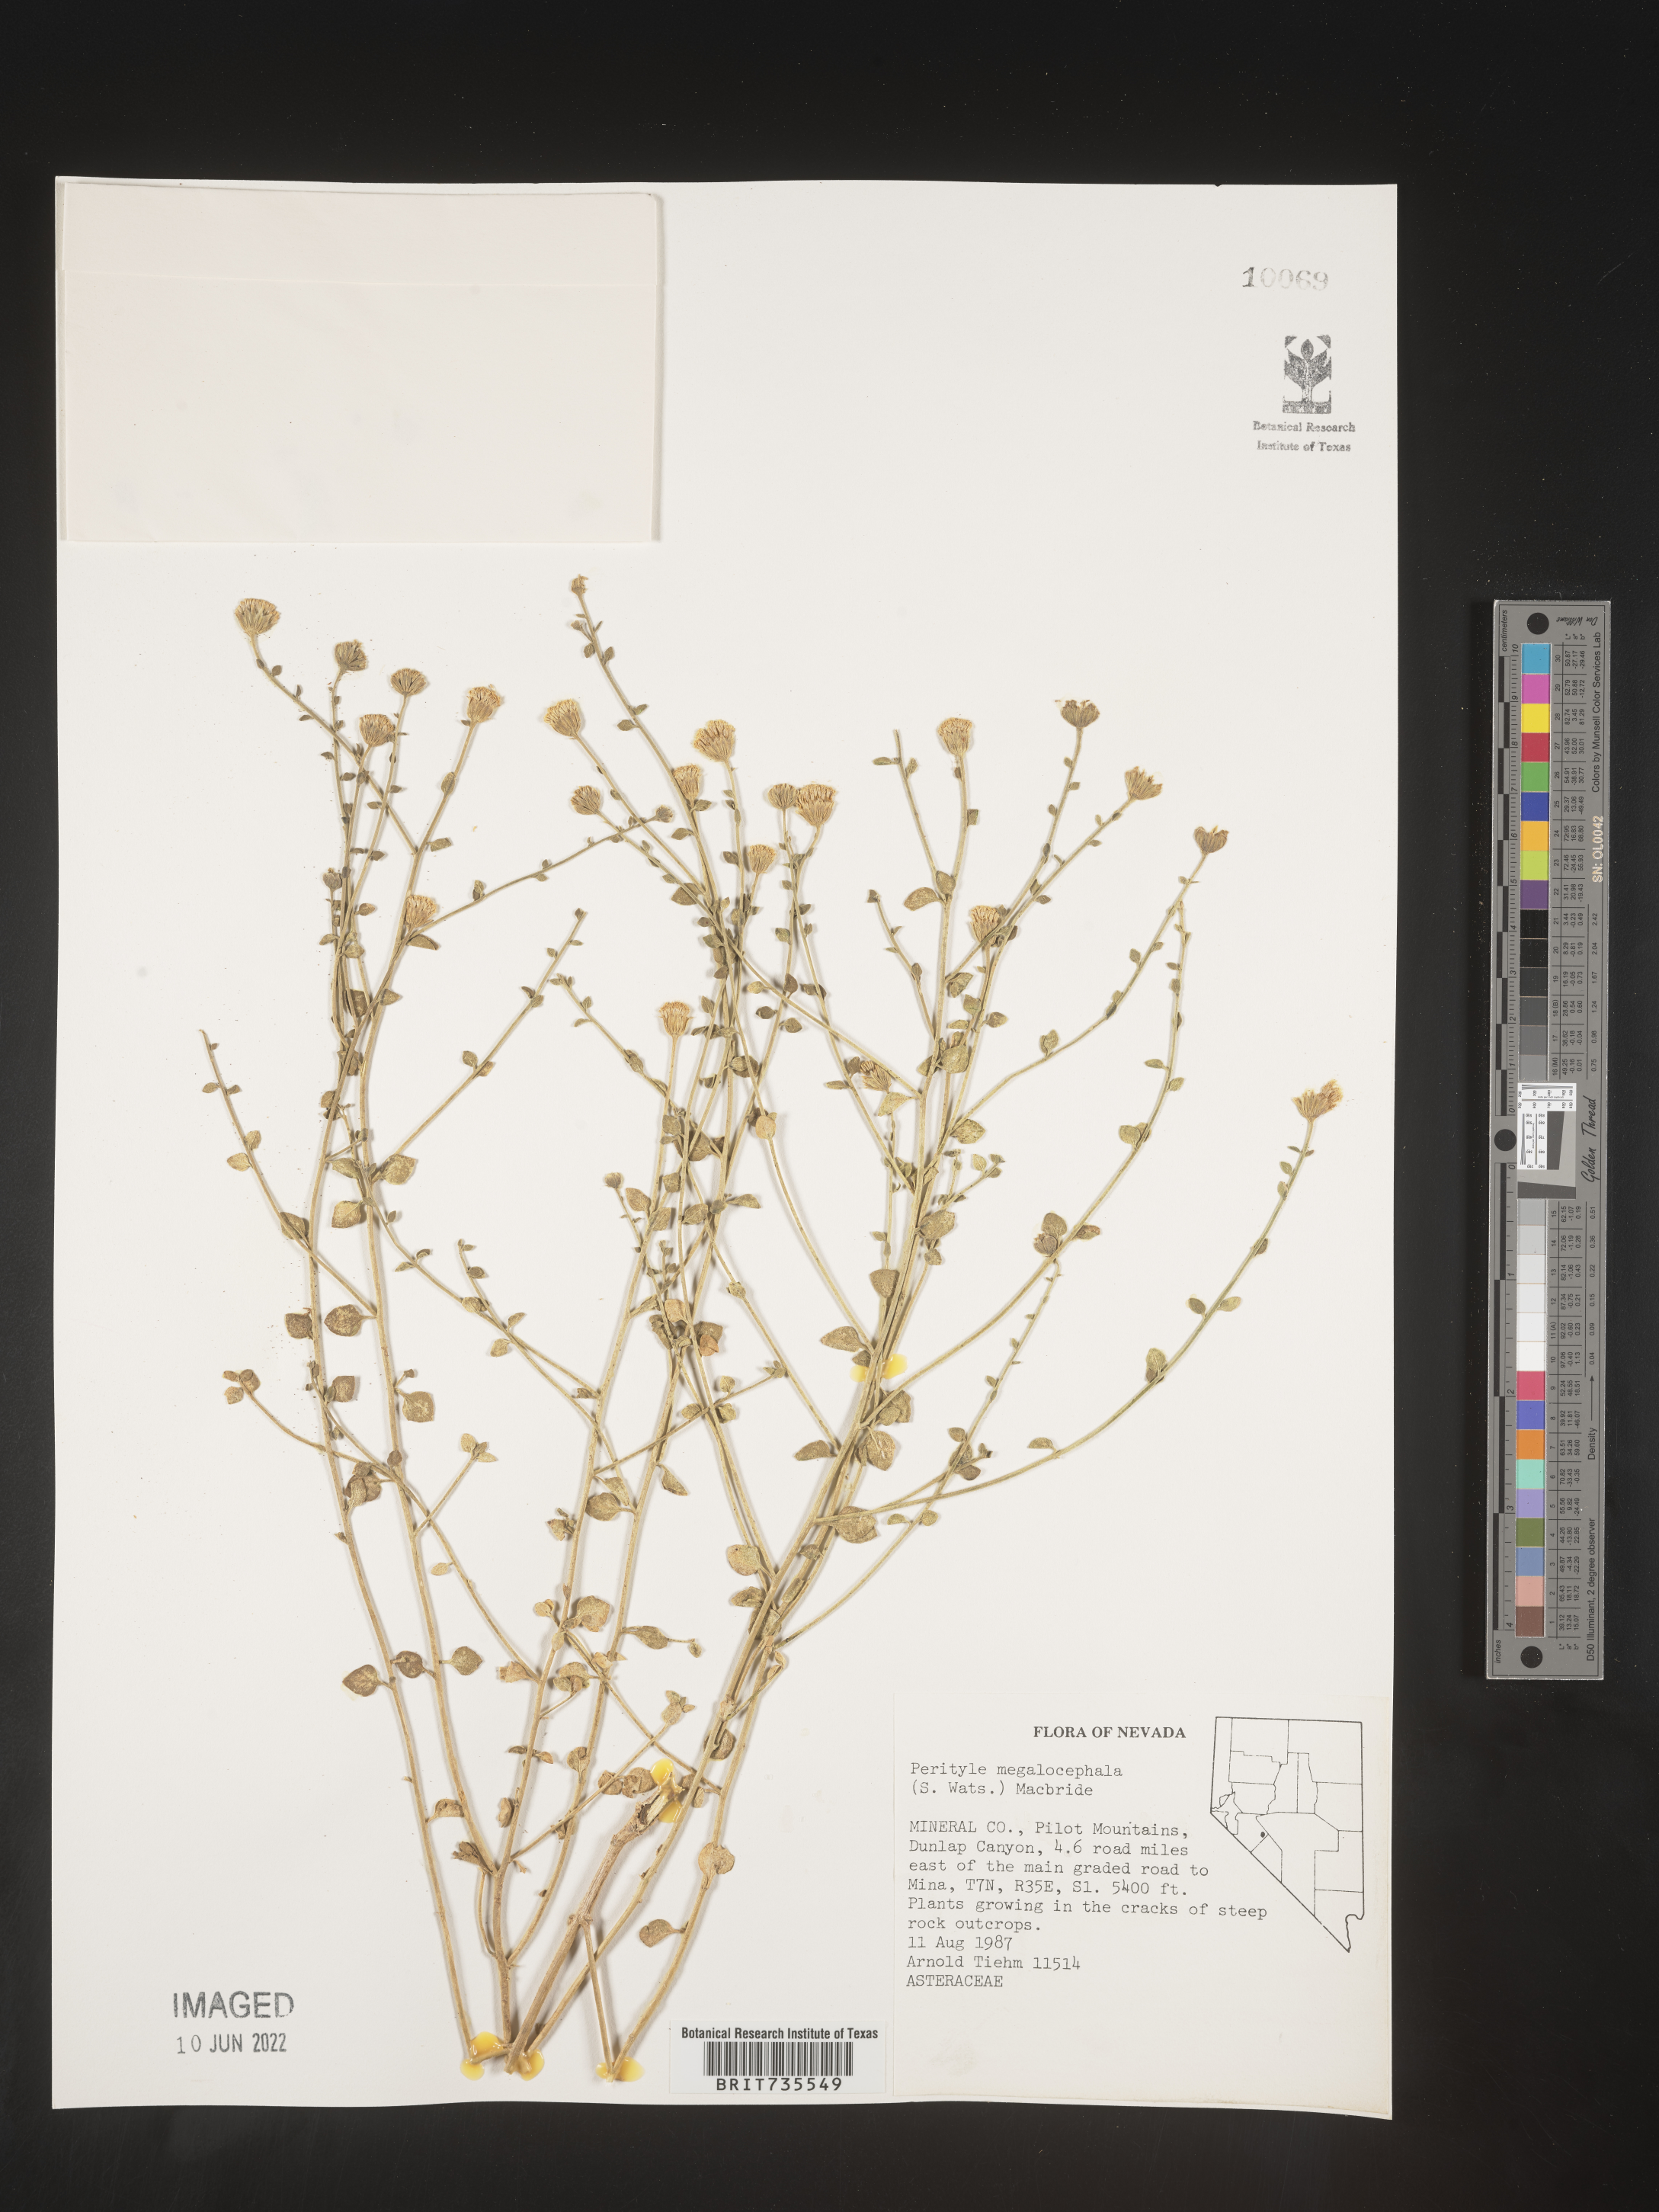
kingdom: Plantae
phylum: Tracheophyta
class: Magnoliopsida
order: Asterales
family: Asteraceae
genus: Perityle
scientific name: Perityle
